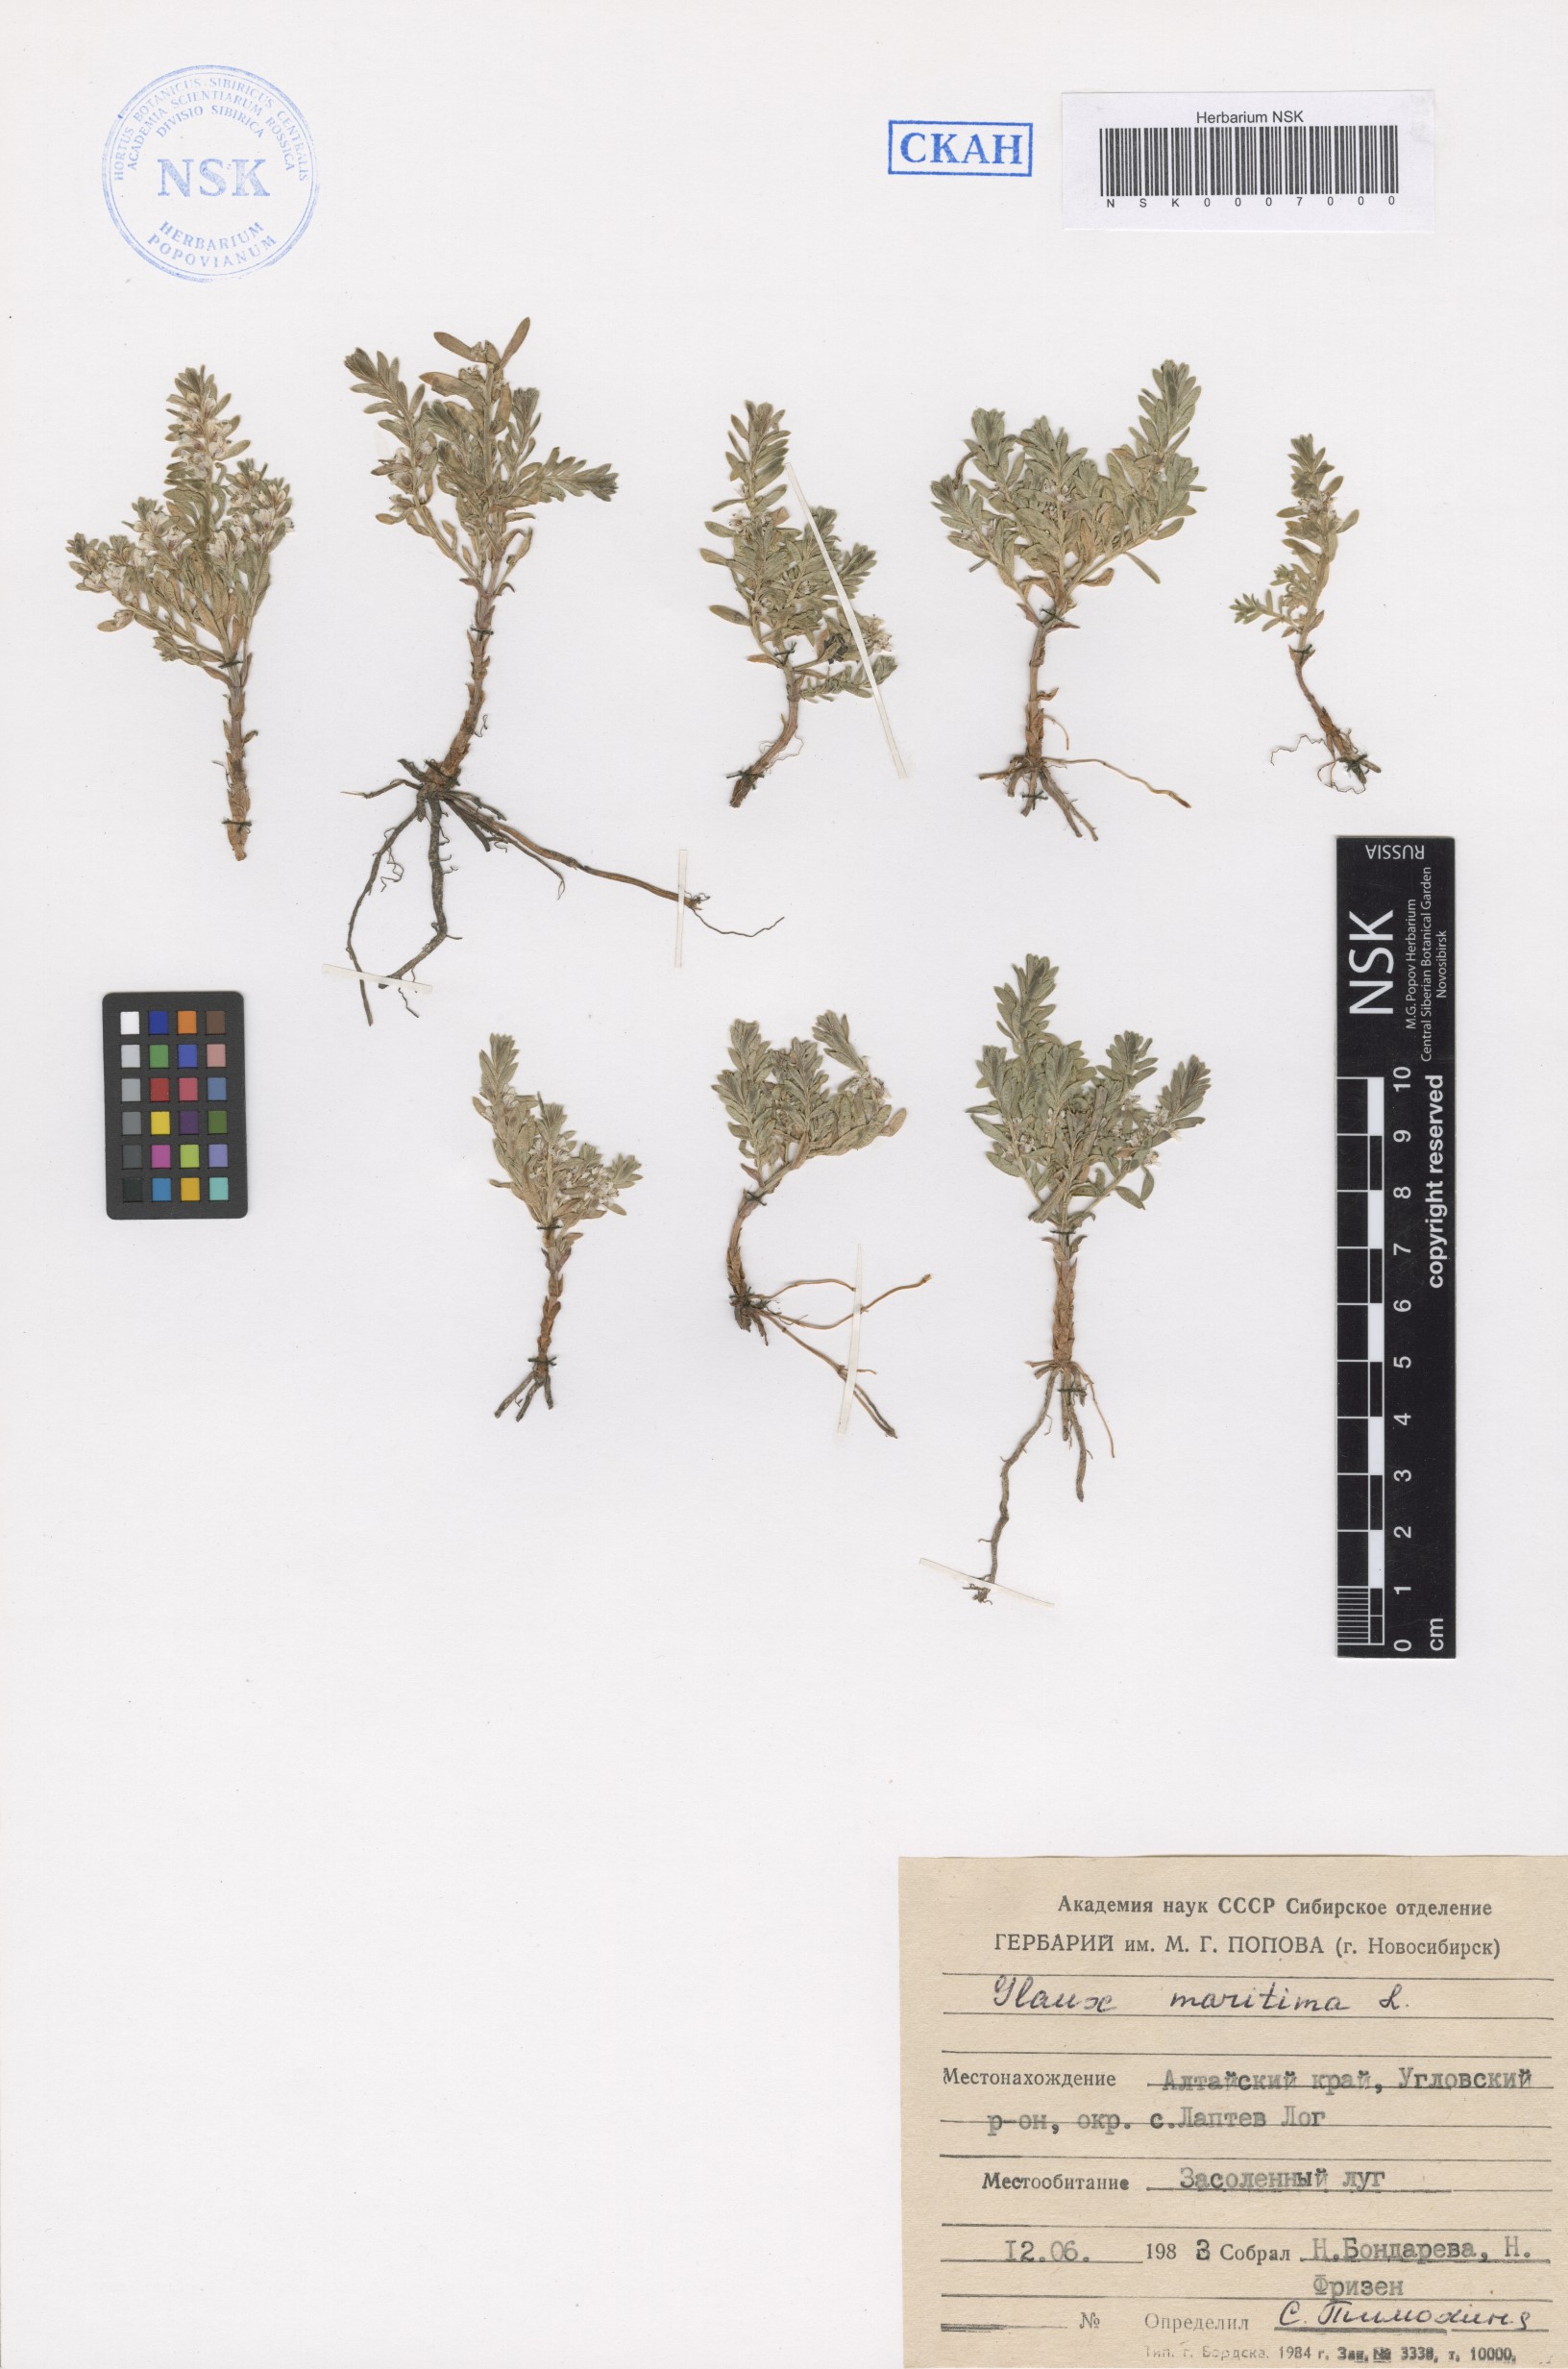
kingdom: Plantae
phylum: Tracheophyta
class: Magnoliopsida
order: Ericales
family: Primulaceae
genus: Lysimachia
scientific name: Lysimachia maritima
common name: Sea milkwort
